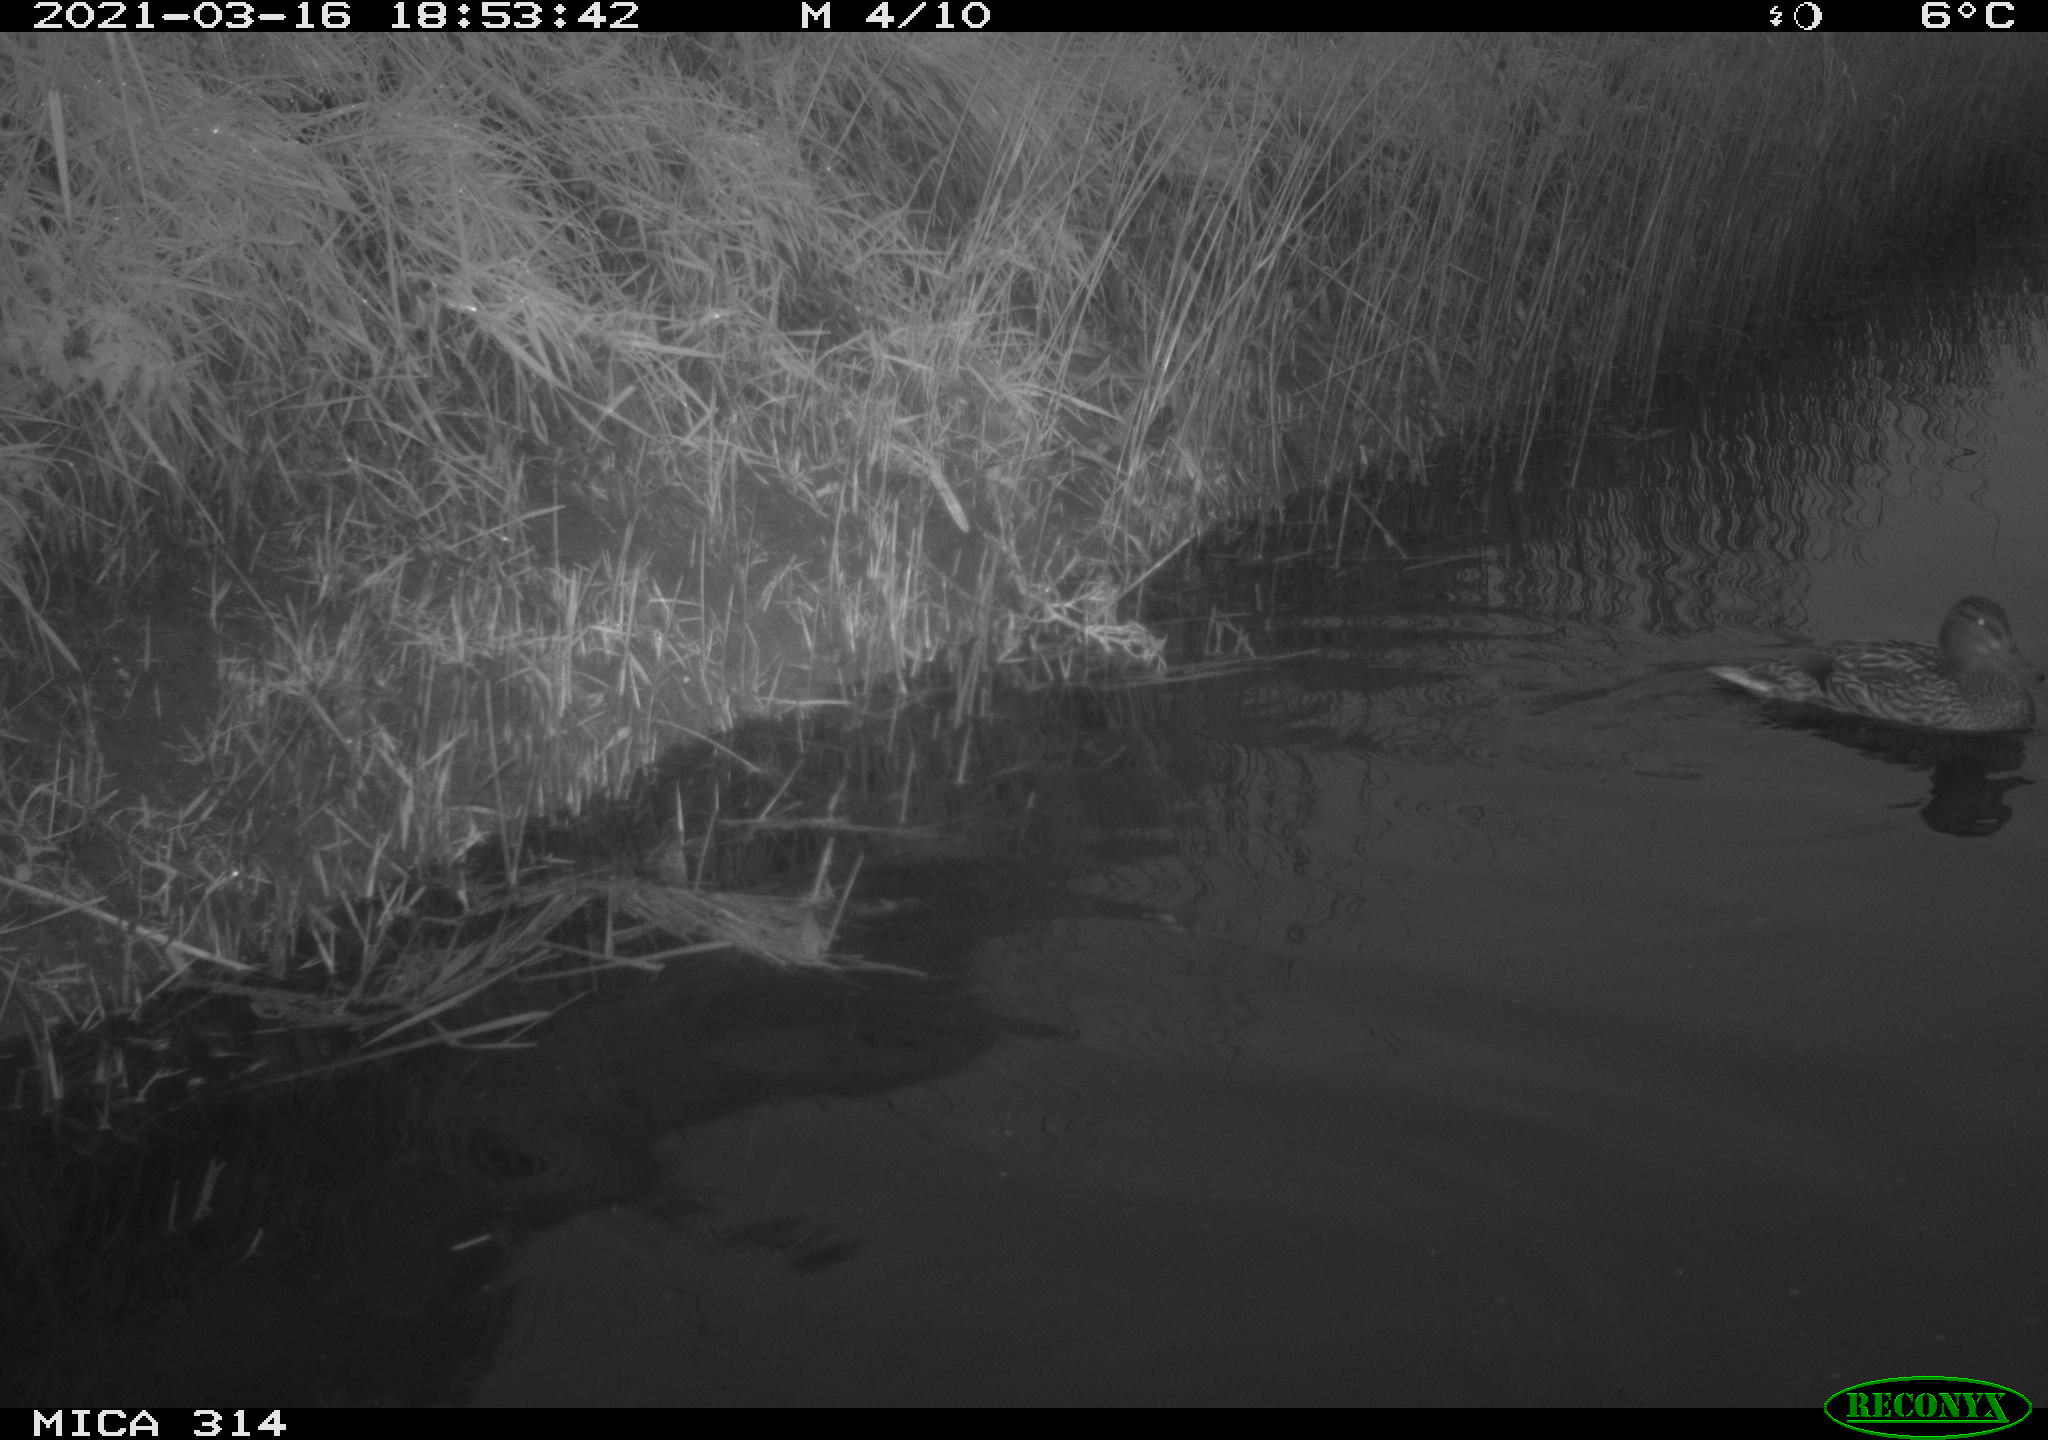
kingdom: Animalia
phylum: Chordata
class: Aves
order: Anseriformes
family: Anatidae
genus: Anas
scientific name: Anas platyrhynchos
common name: Mallard
